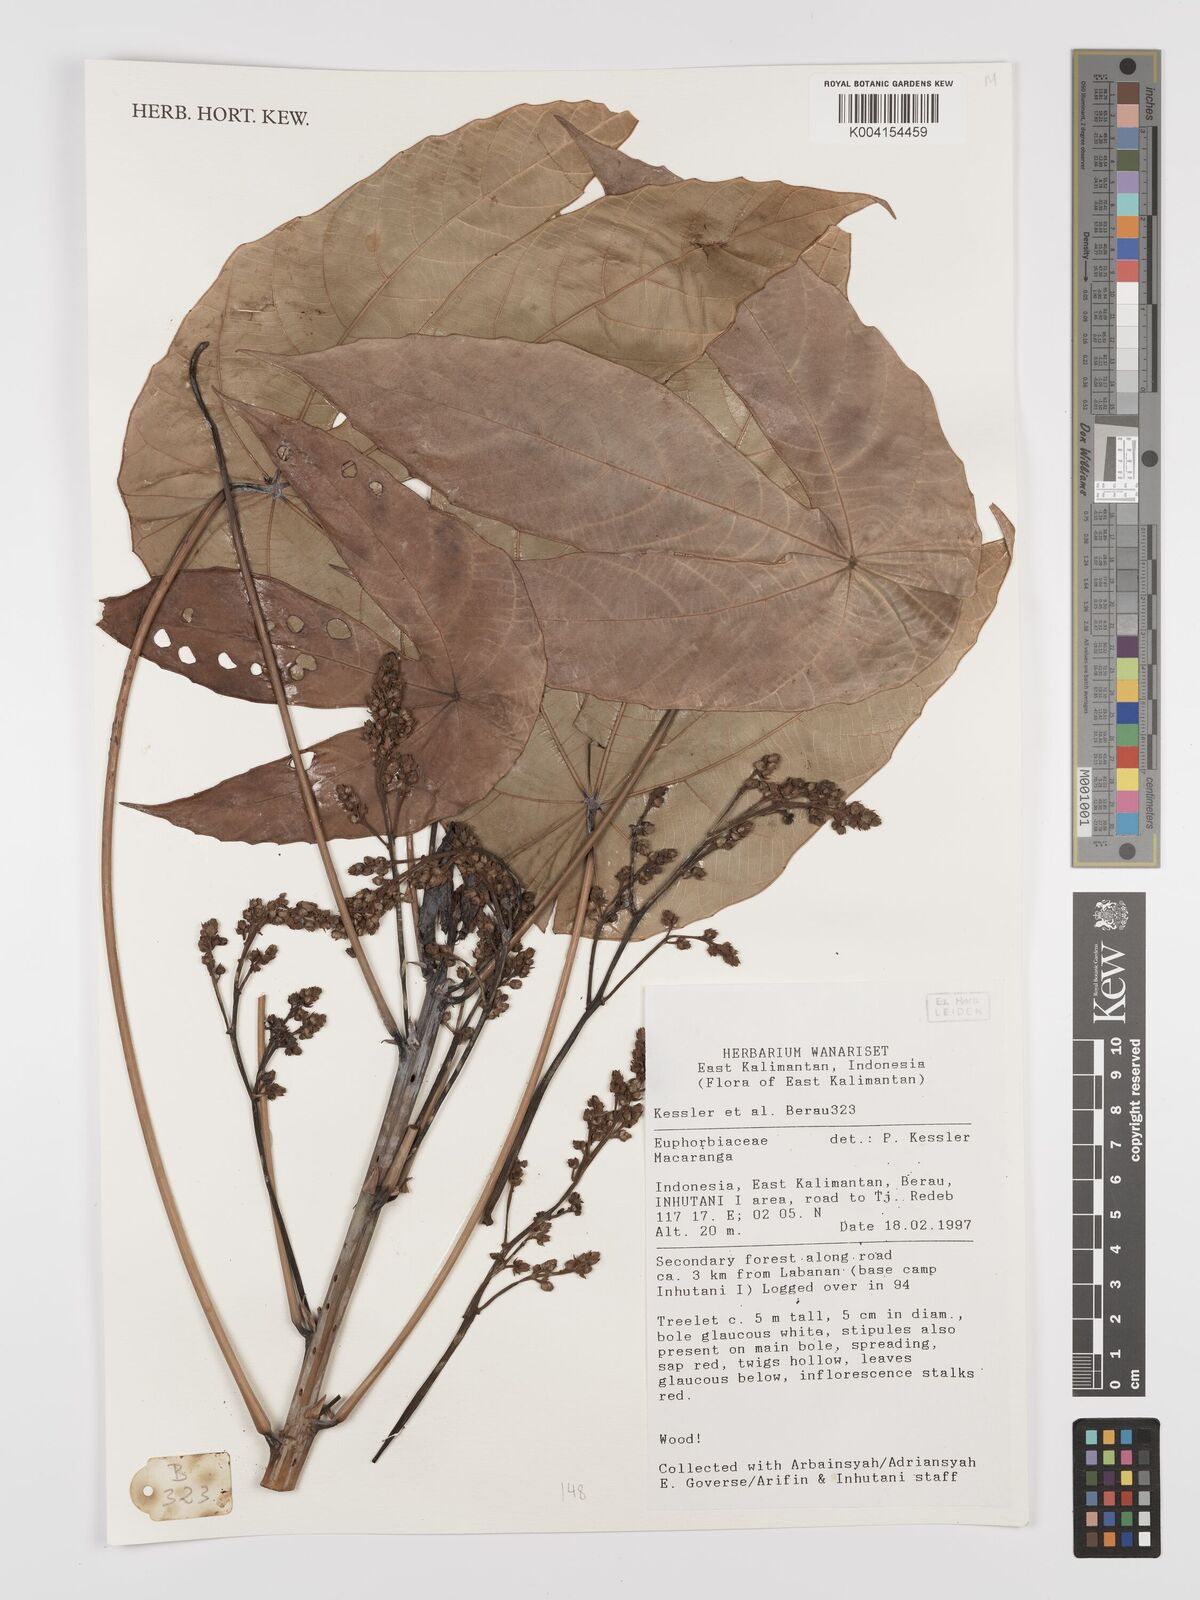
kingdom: Plantae
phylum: Tracheophyta
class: Magnoliopsida
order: Malpighiales
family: Euphorbiaceae
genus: Macaranga
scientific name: Macaranga
